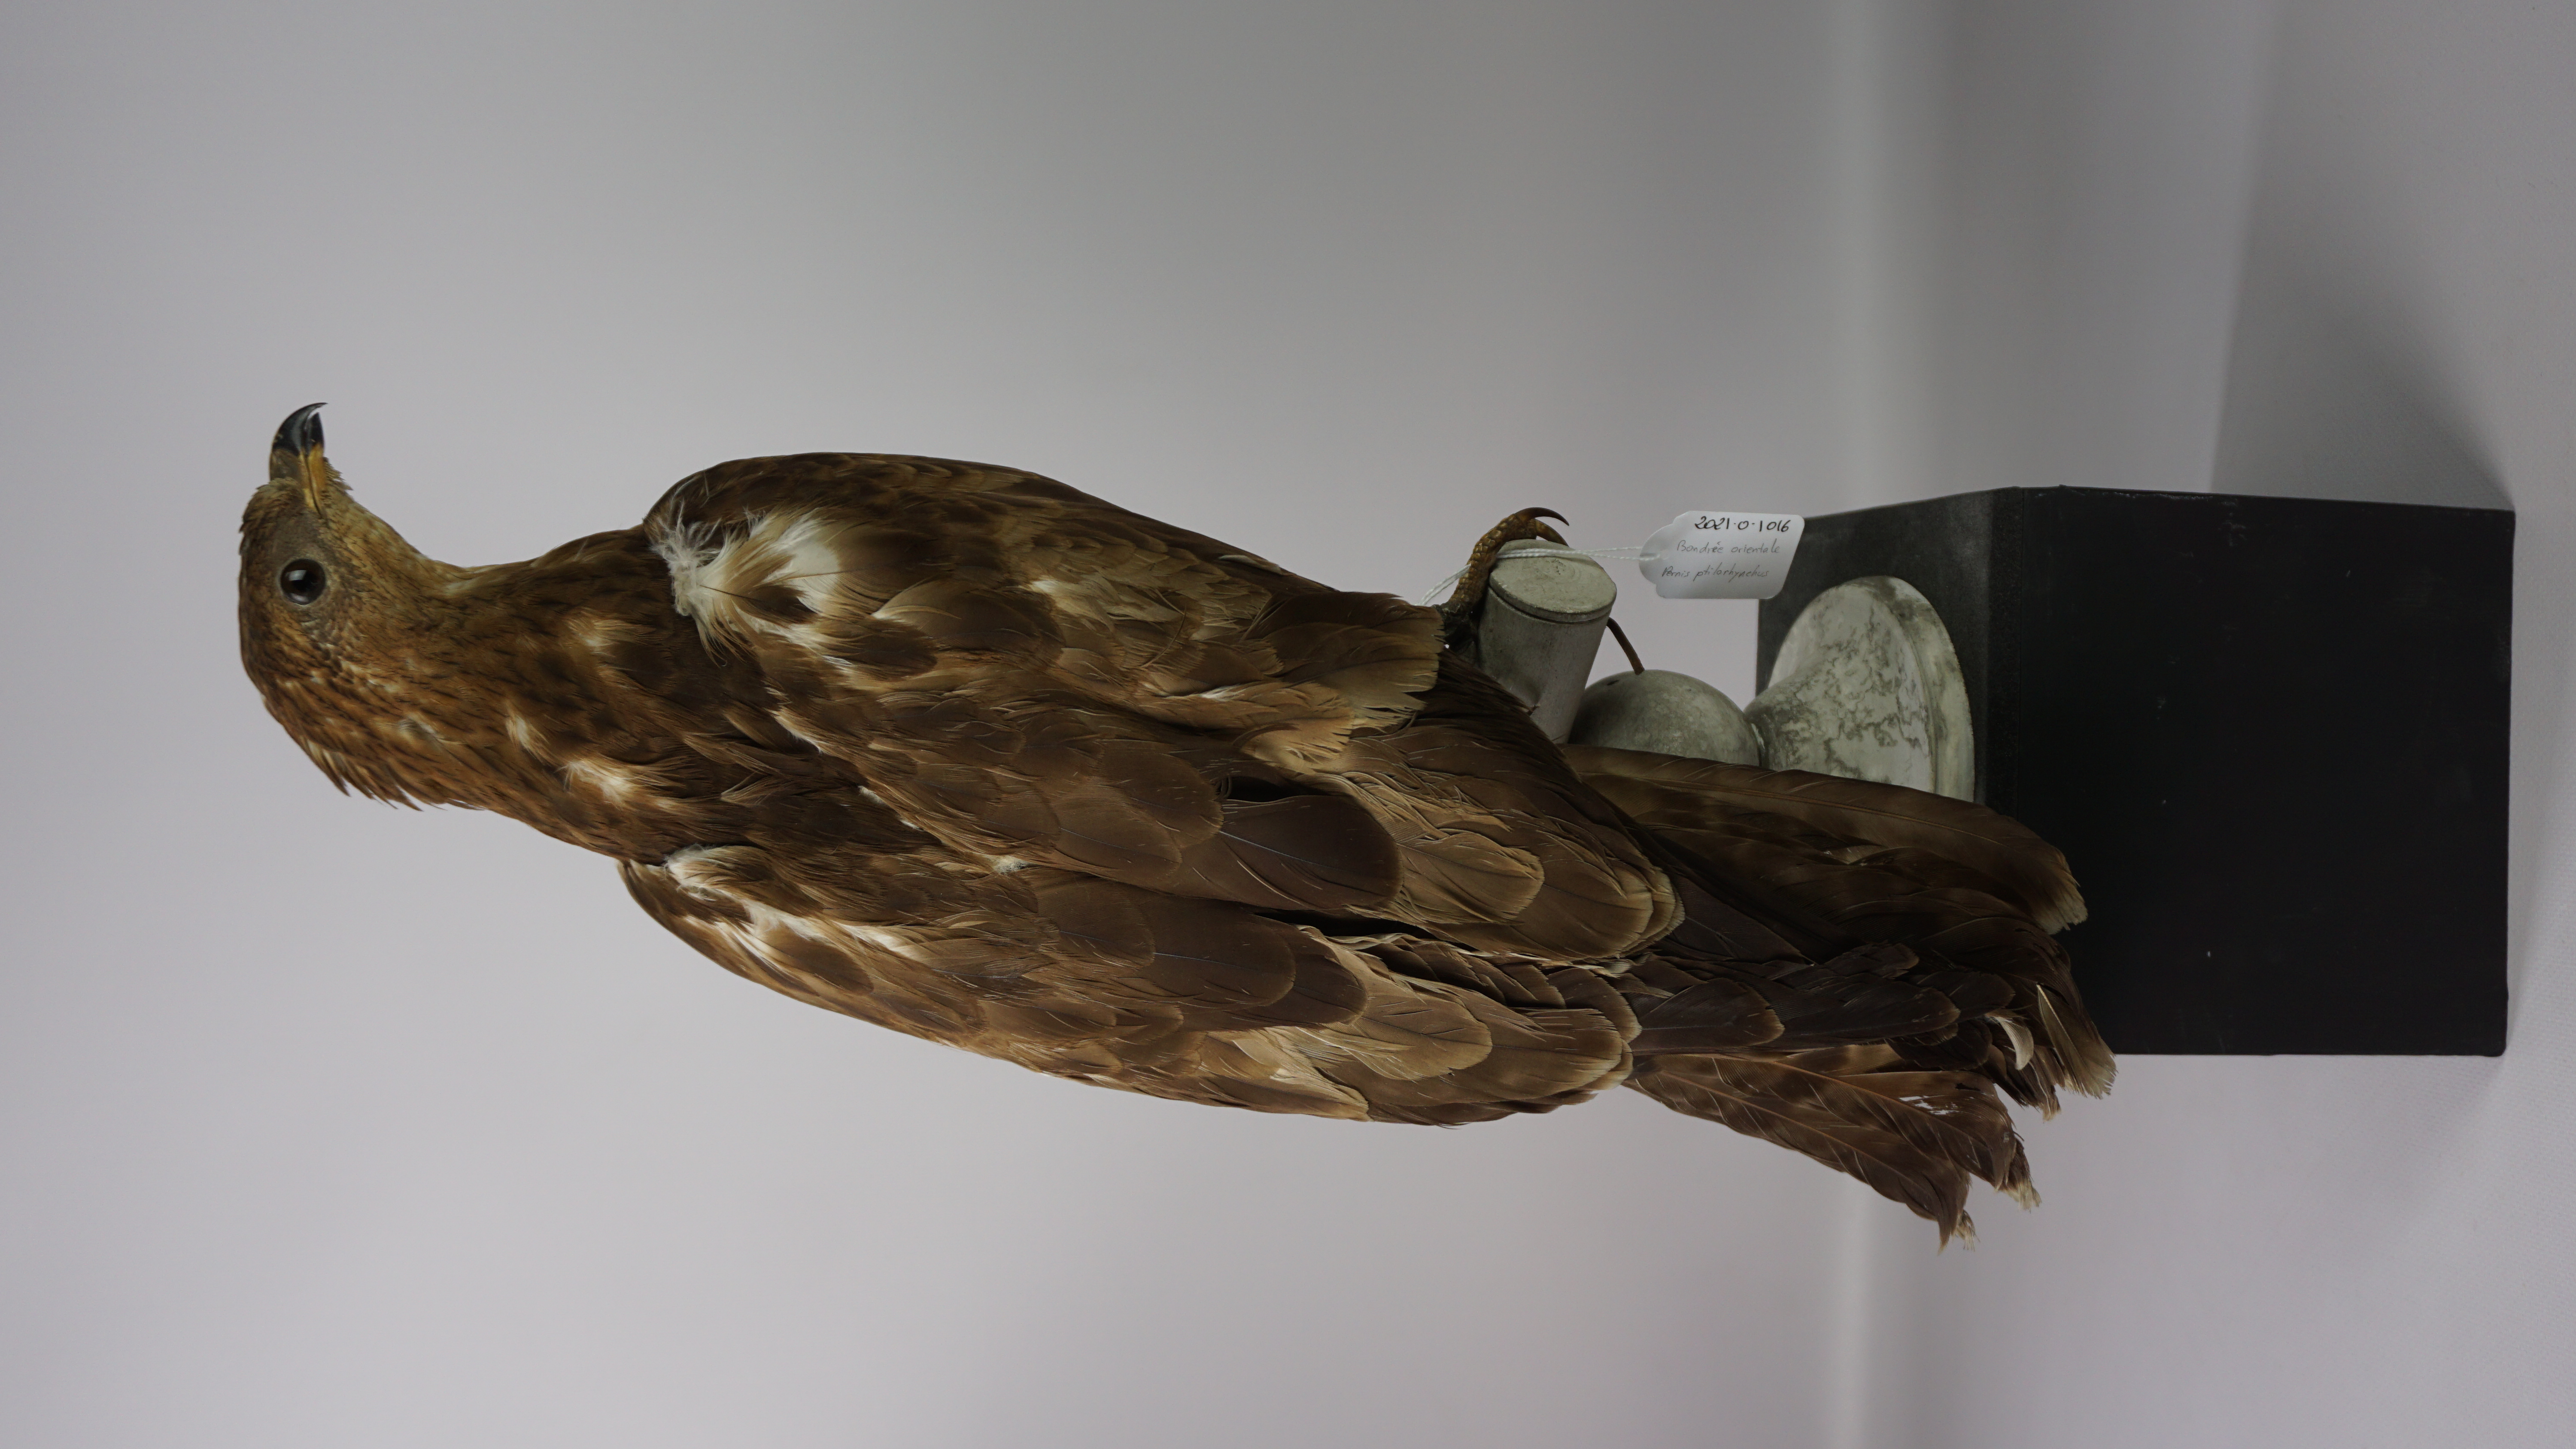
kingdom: Animalia
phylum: Chordata
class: Aves
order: Accipitriformes
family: Accipitridae
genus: Pernis
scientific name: Pernis ptilorhynchus
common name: Crested honey buzzard
